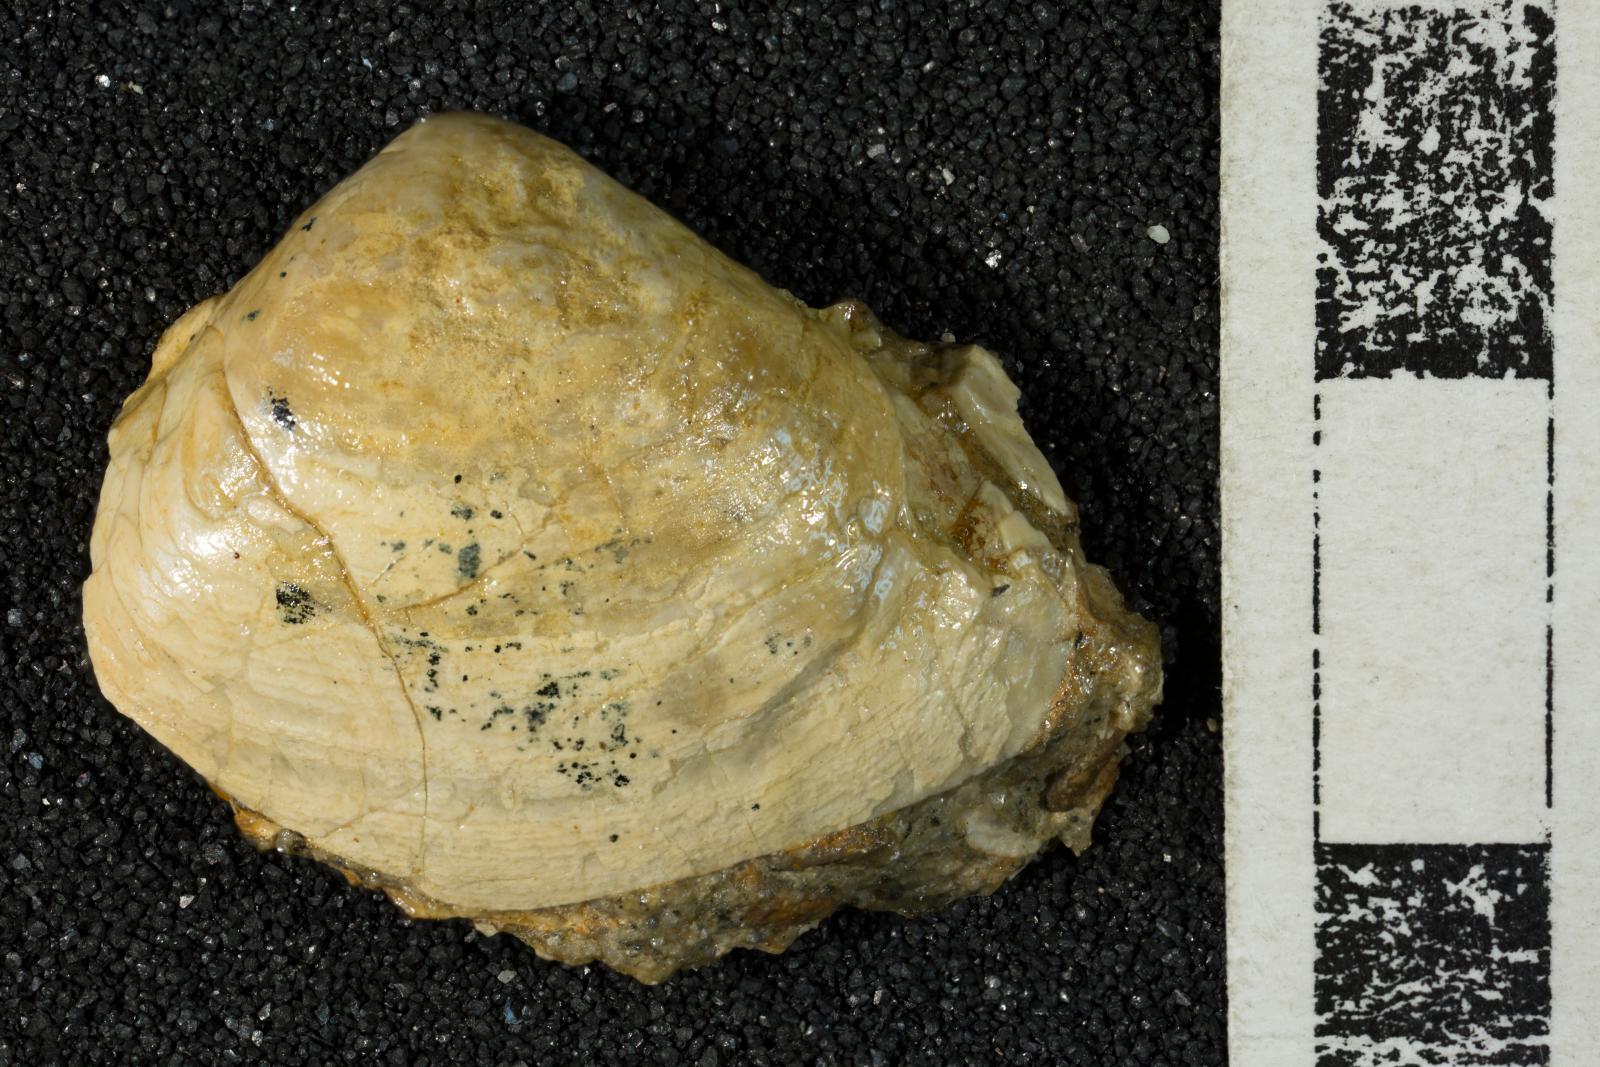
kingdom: Animalia
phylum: Mollusca
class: Bivalvia
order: Venerida
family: Mactridae
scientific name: Mactridae
